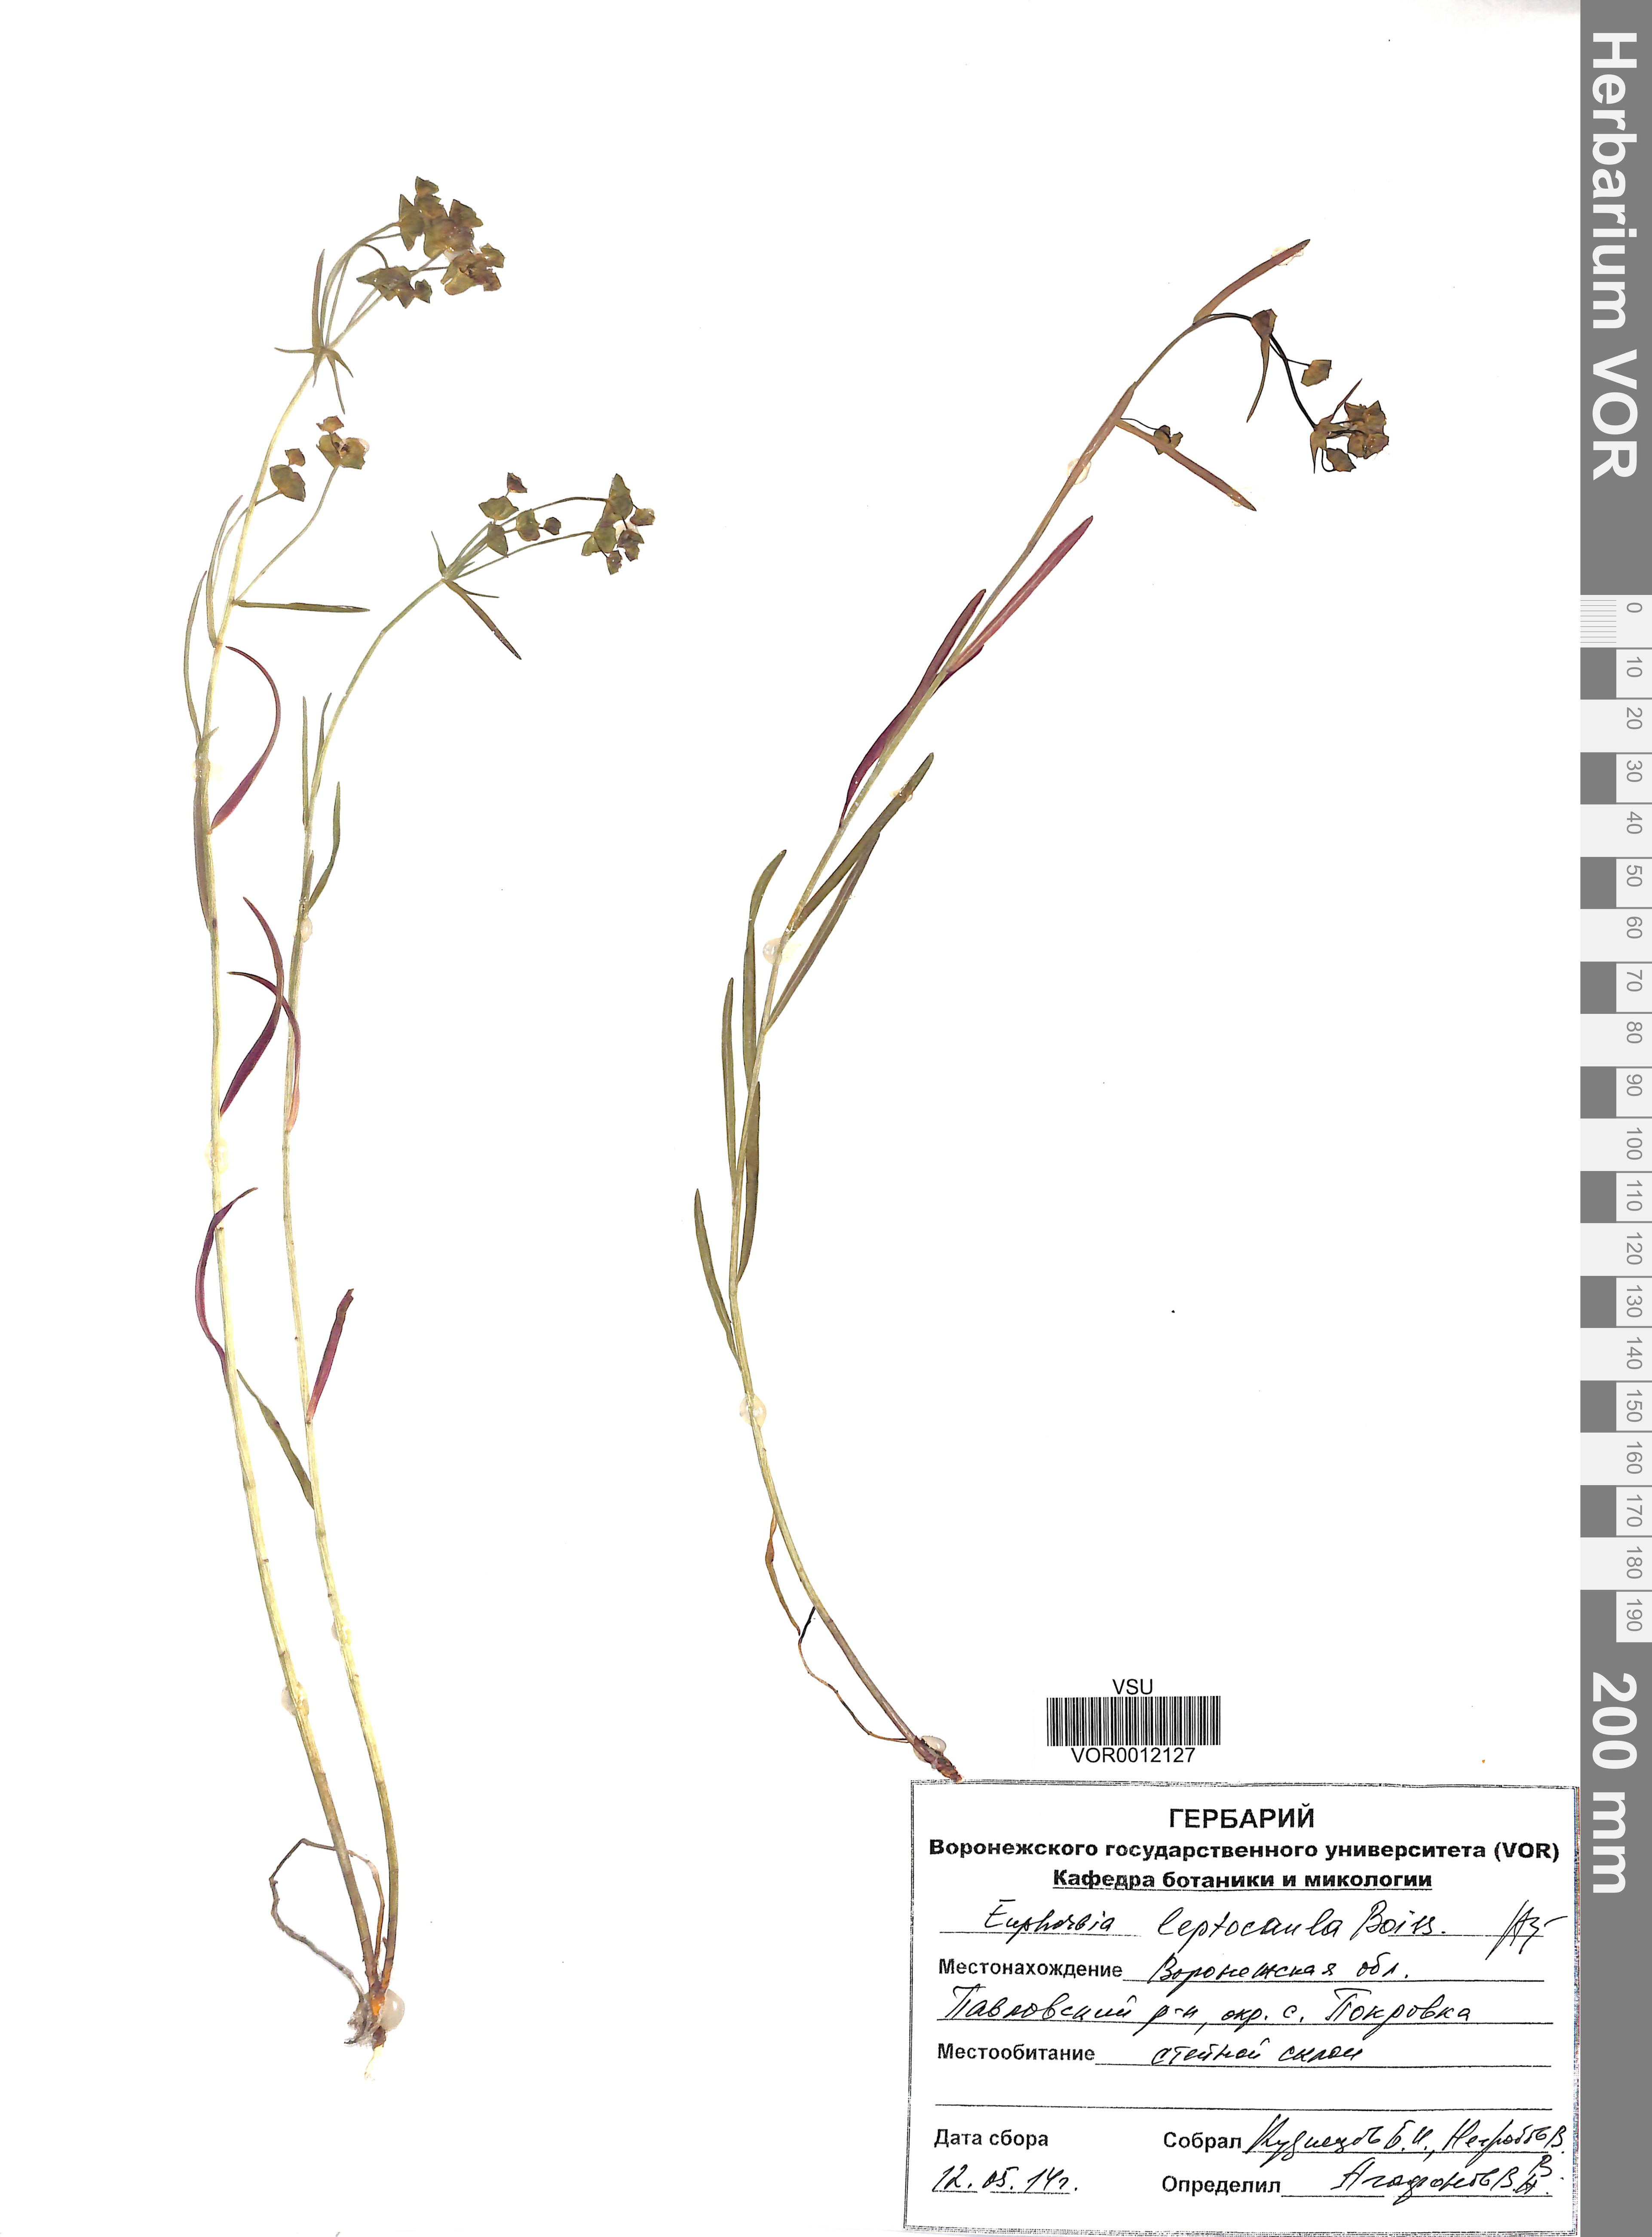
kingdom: Plantae
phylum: Tracheophyta
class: Magnoliopsida
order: Malpighiales
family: Euphorbiaceae
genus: Euphorbia
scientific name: Euphorbia leptocaula
